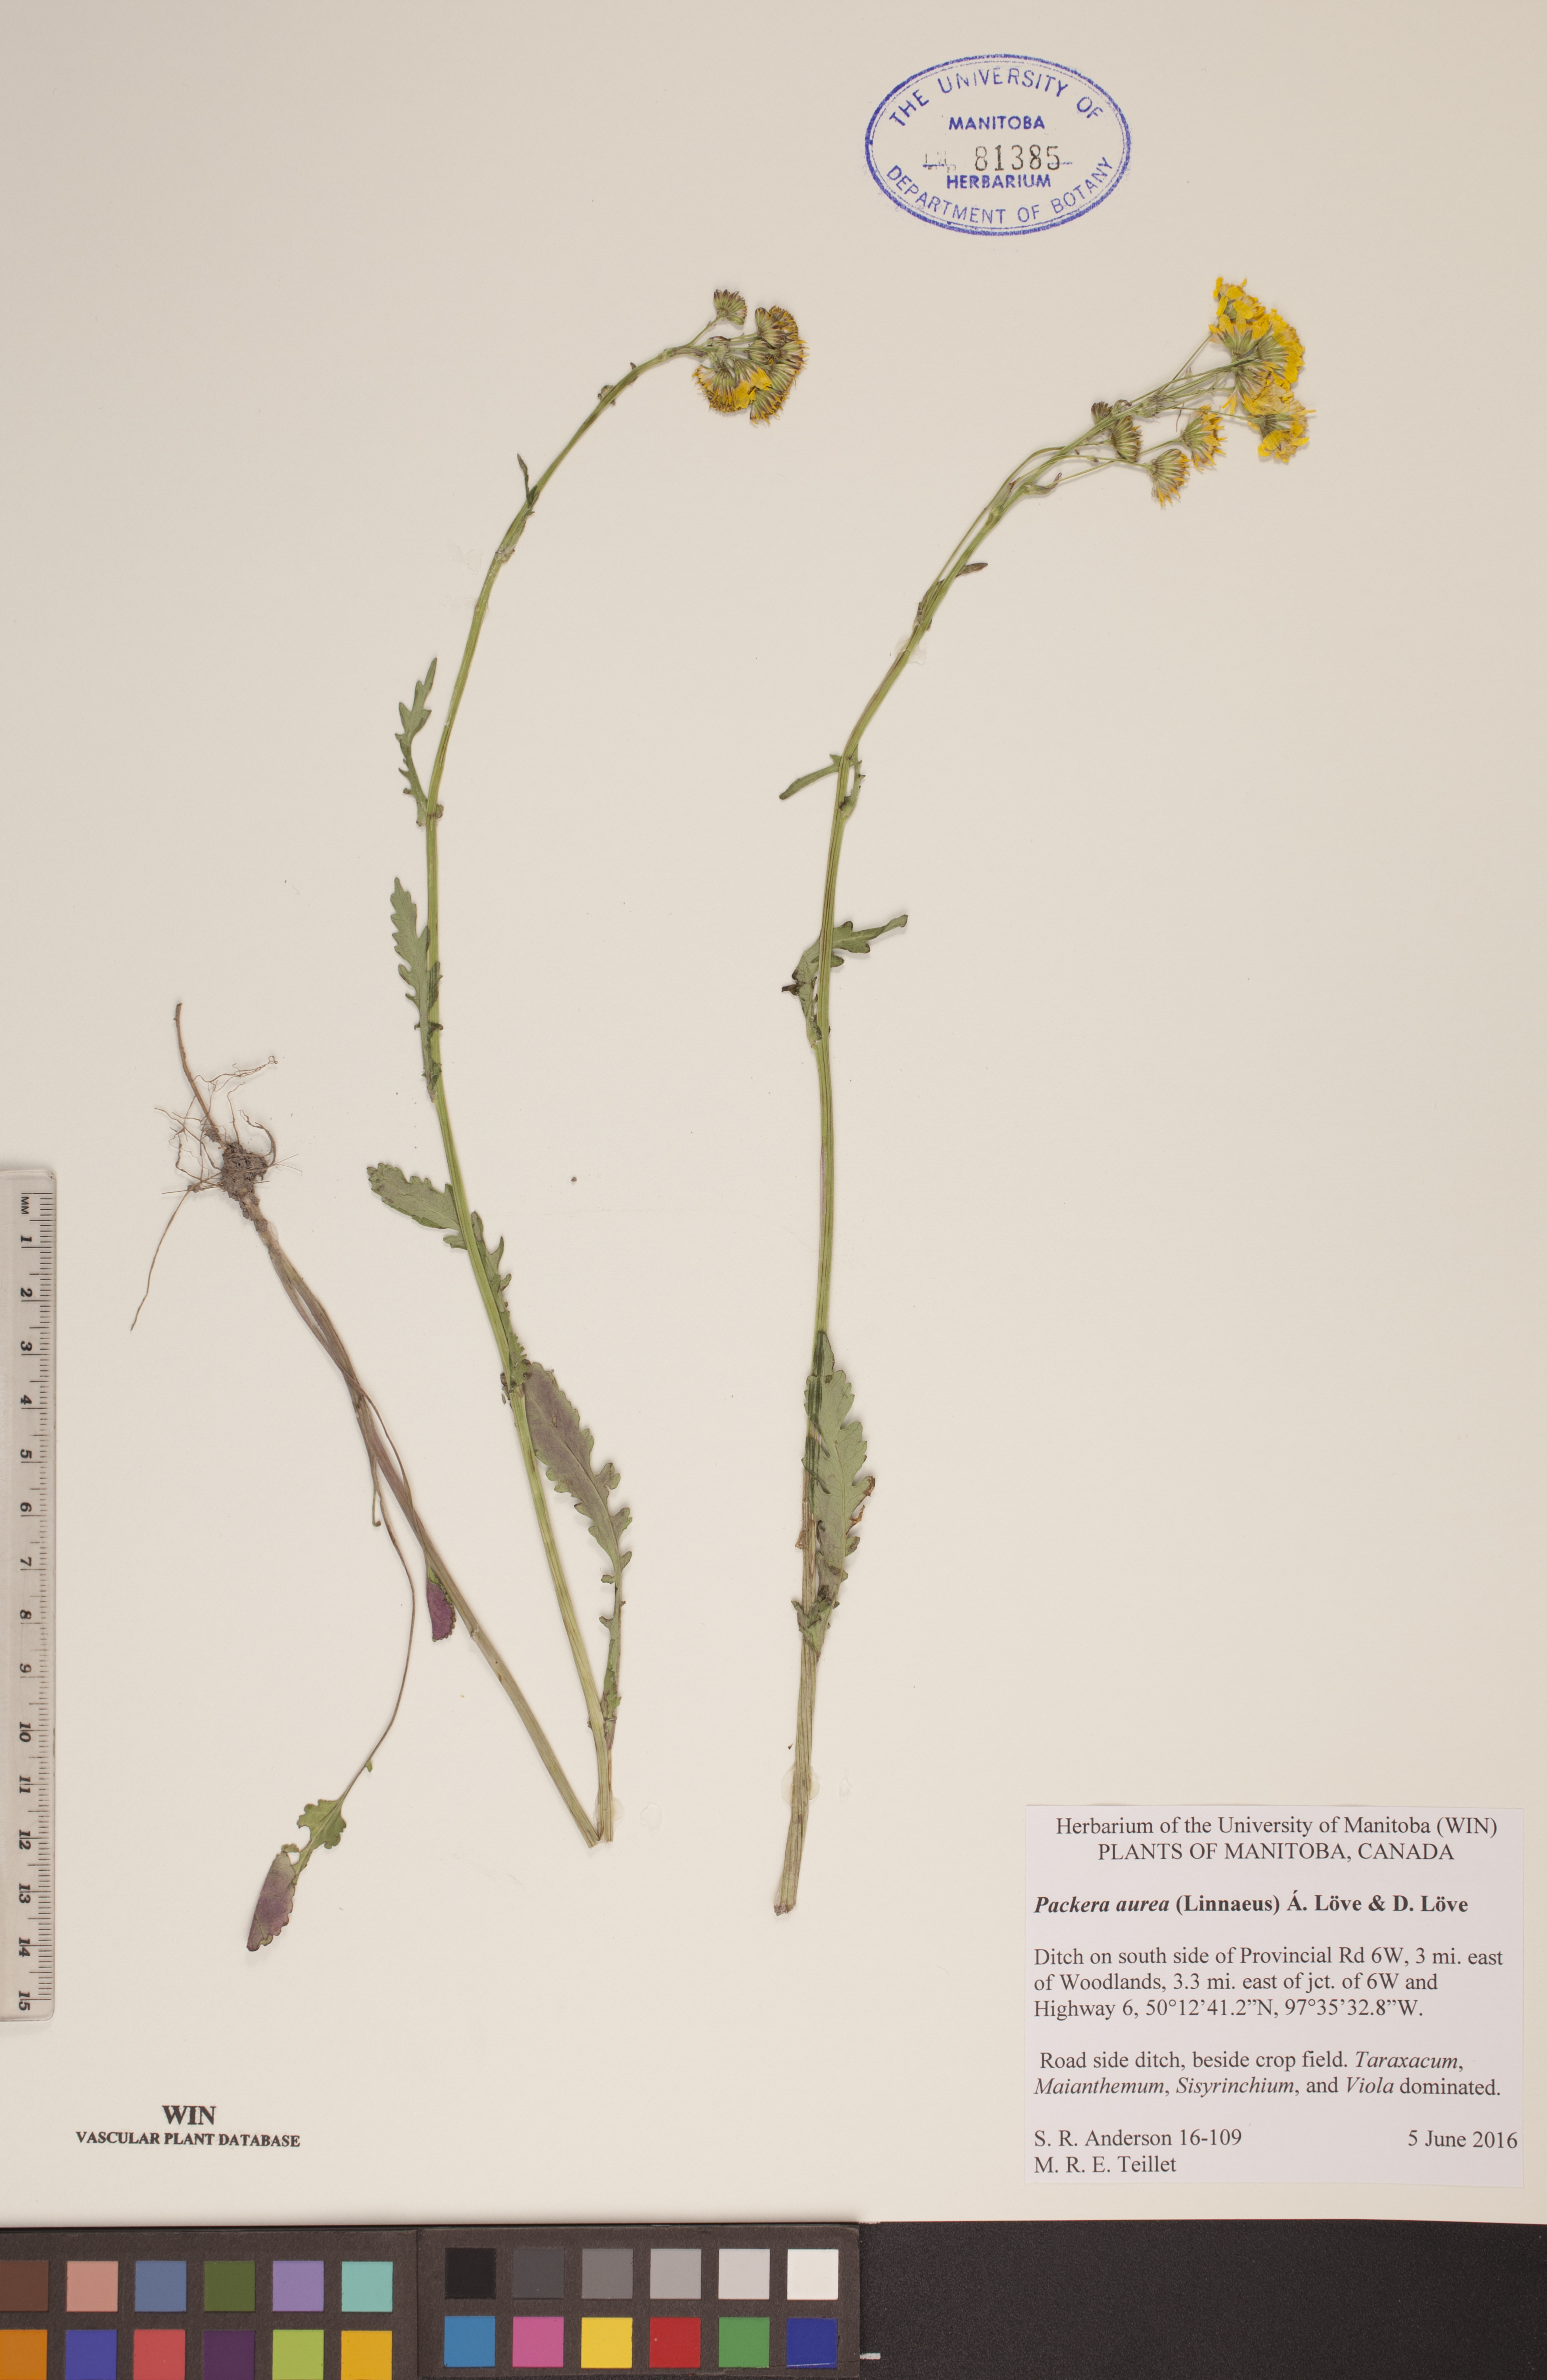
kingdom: Plantae
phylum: Tracheophyta
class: Magnoliopsida
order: Asterales
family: Asteraceae
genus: Packera
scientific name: Packera aurea
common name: Golden groundsel
